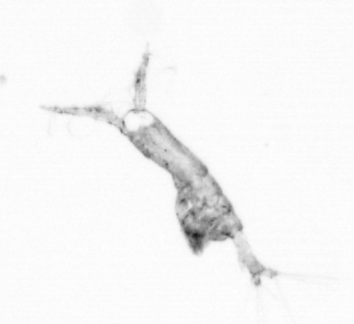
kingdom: Animalia
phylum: Arthropoda
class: Copepoda
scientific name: Copepoda
